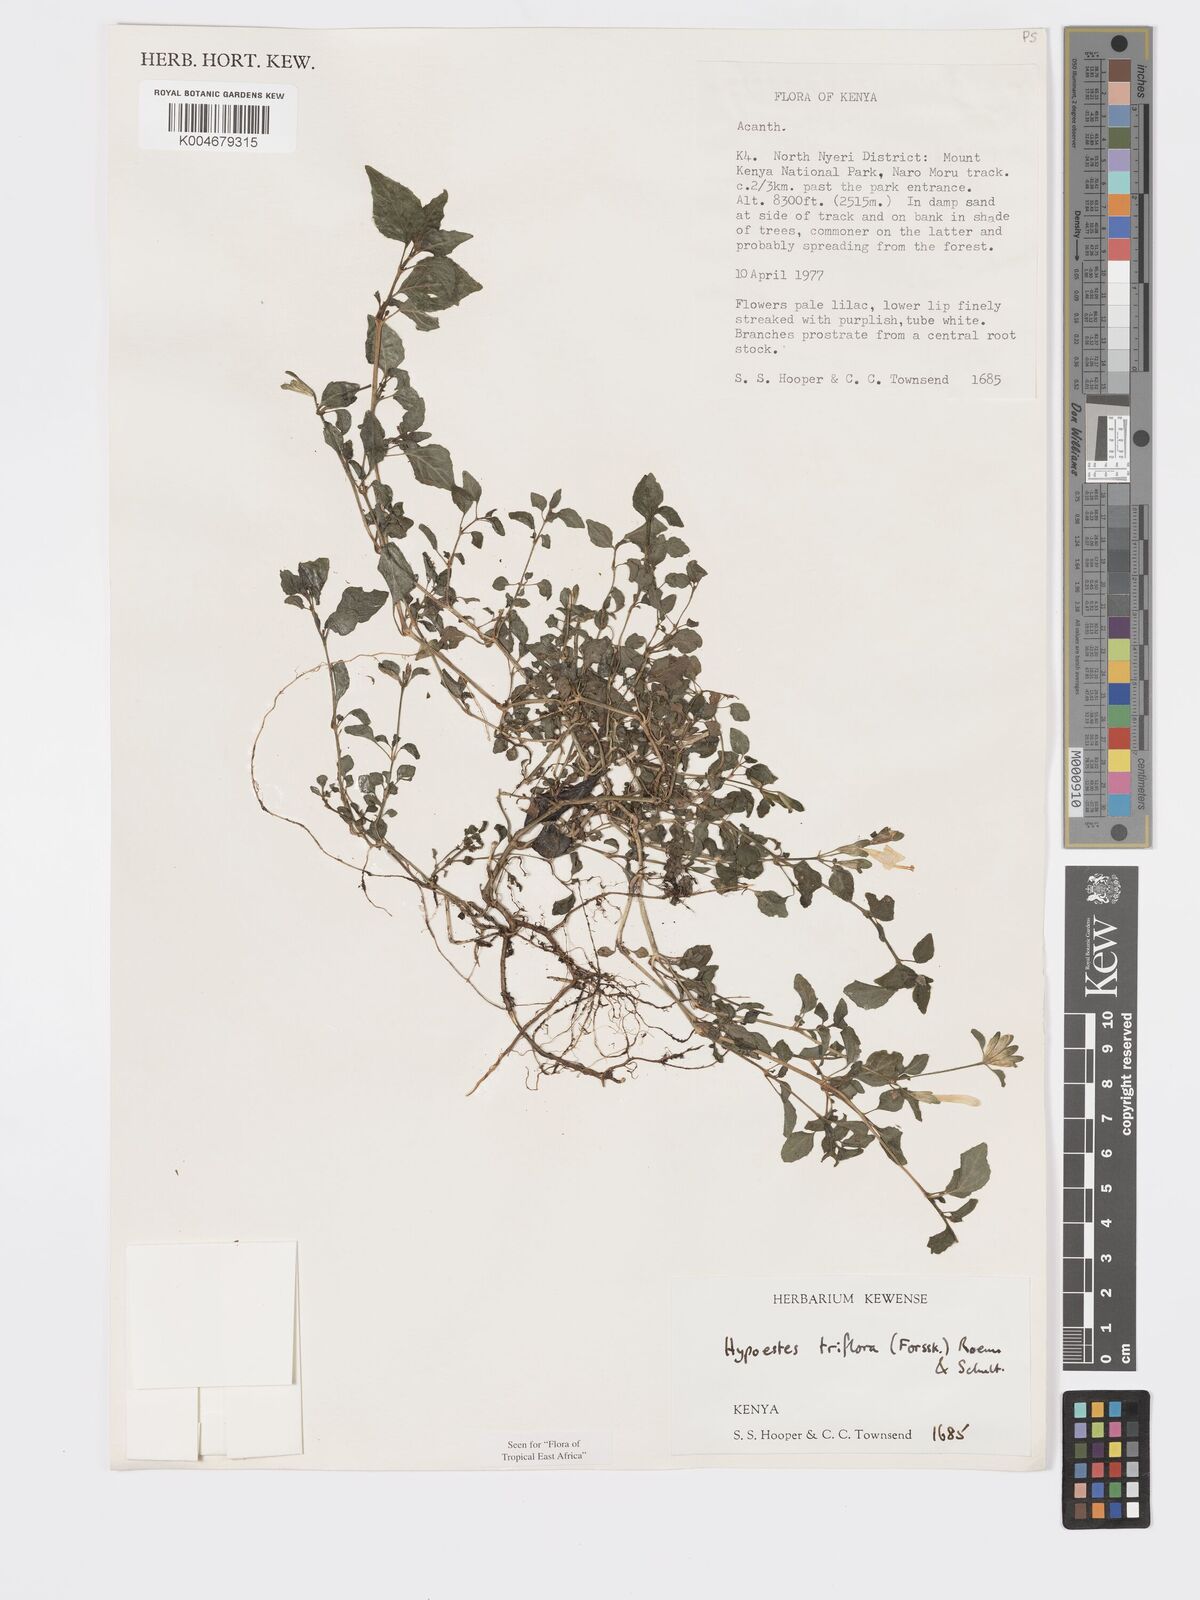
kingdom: Plantae
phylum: Tracheophyta
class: Magnoliopsida
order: Lamiales
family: Acanthaceae
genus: Hypoestes
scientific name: Hypoestes triflora
